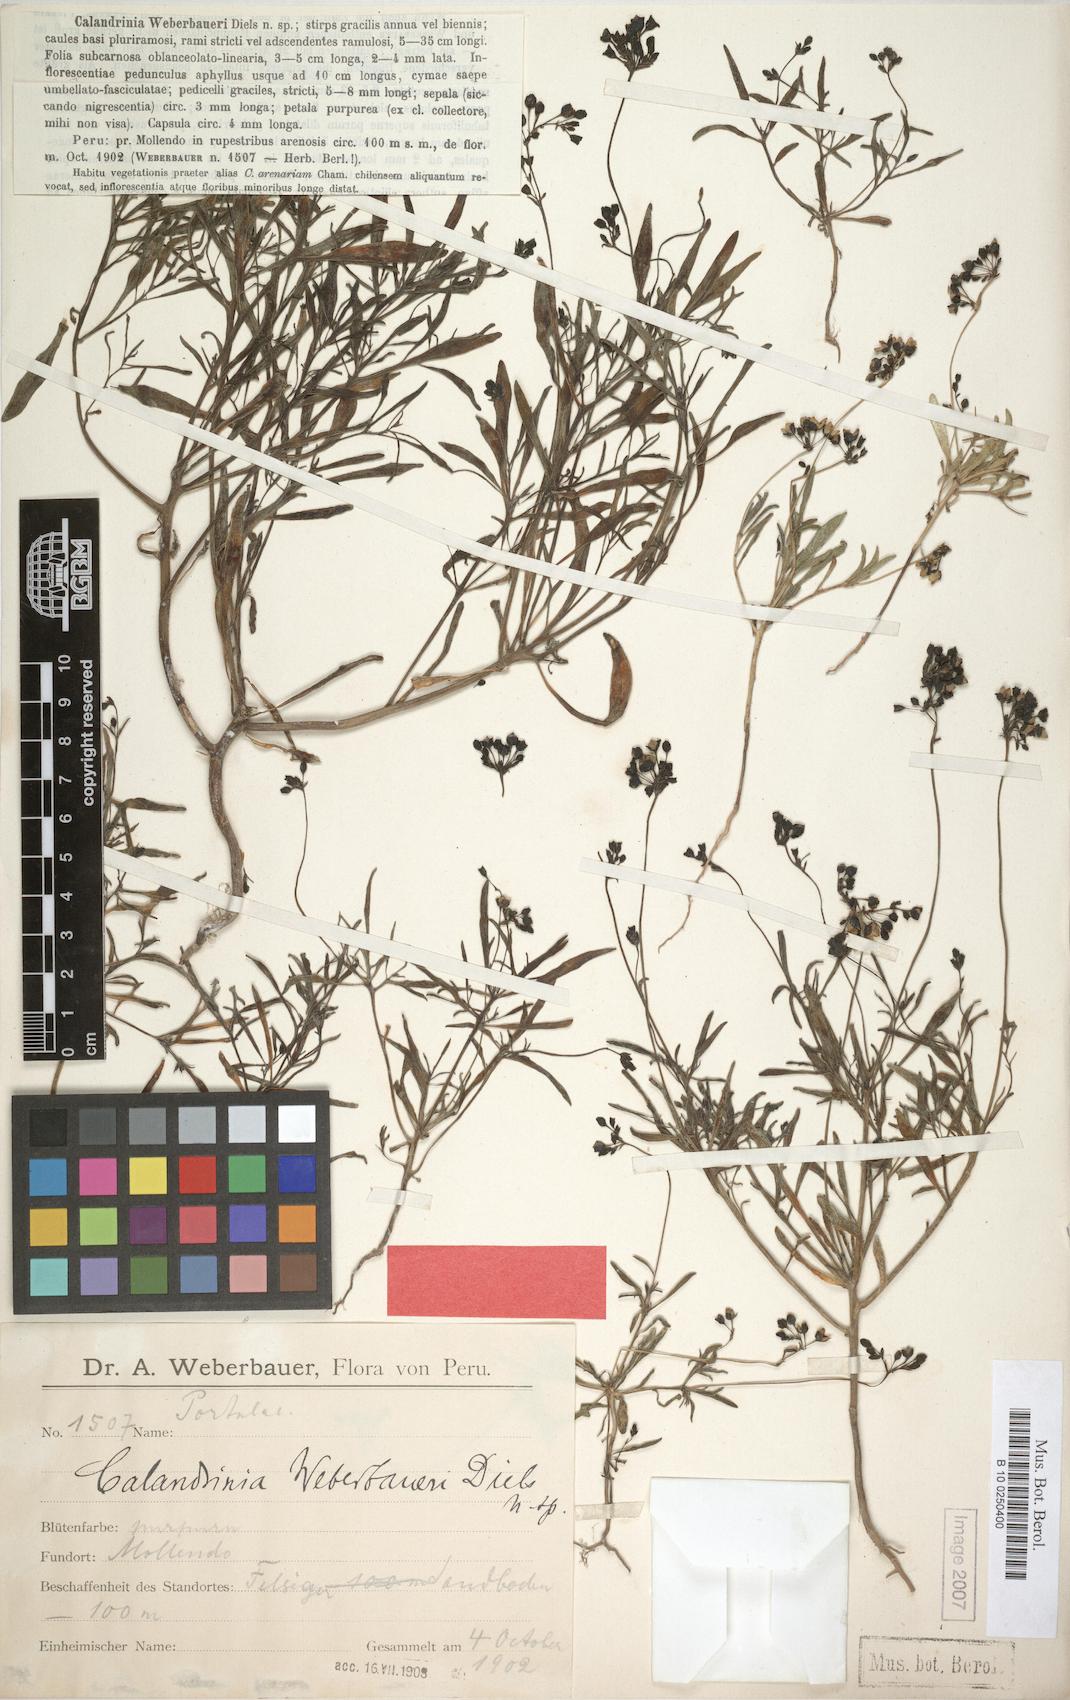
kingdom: Plantae
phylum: Tracheophyta
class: Magnoliopsida
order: Caryophyllales
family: Montiaceae
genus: Cistanthe
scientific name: Cistanthe weberbaueri
